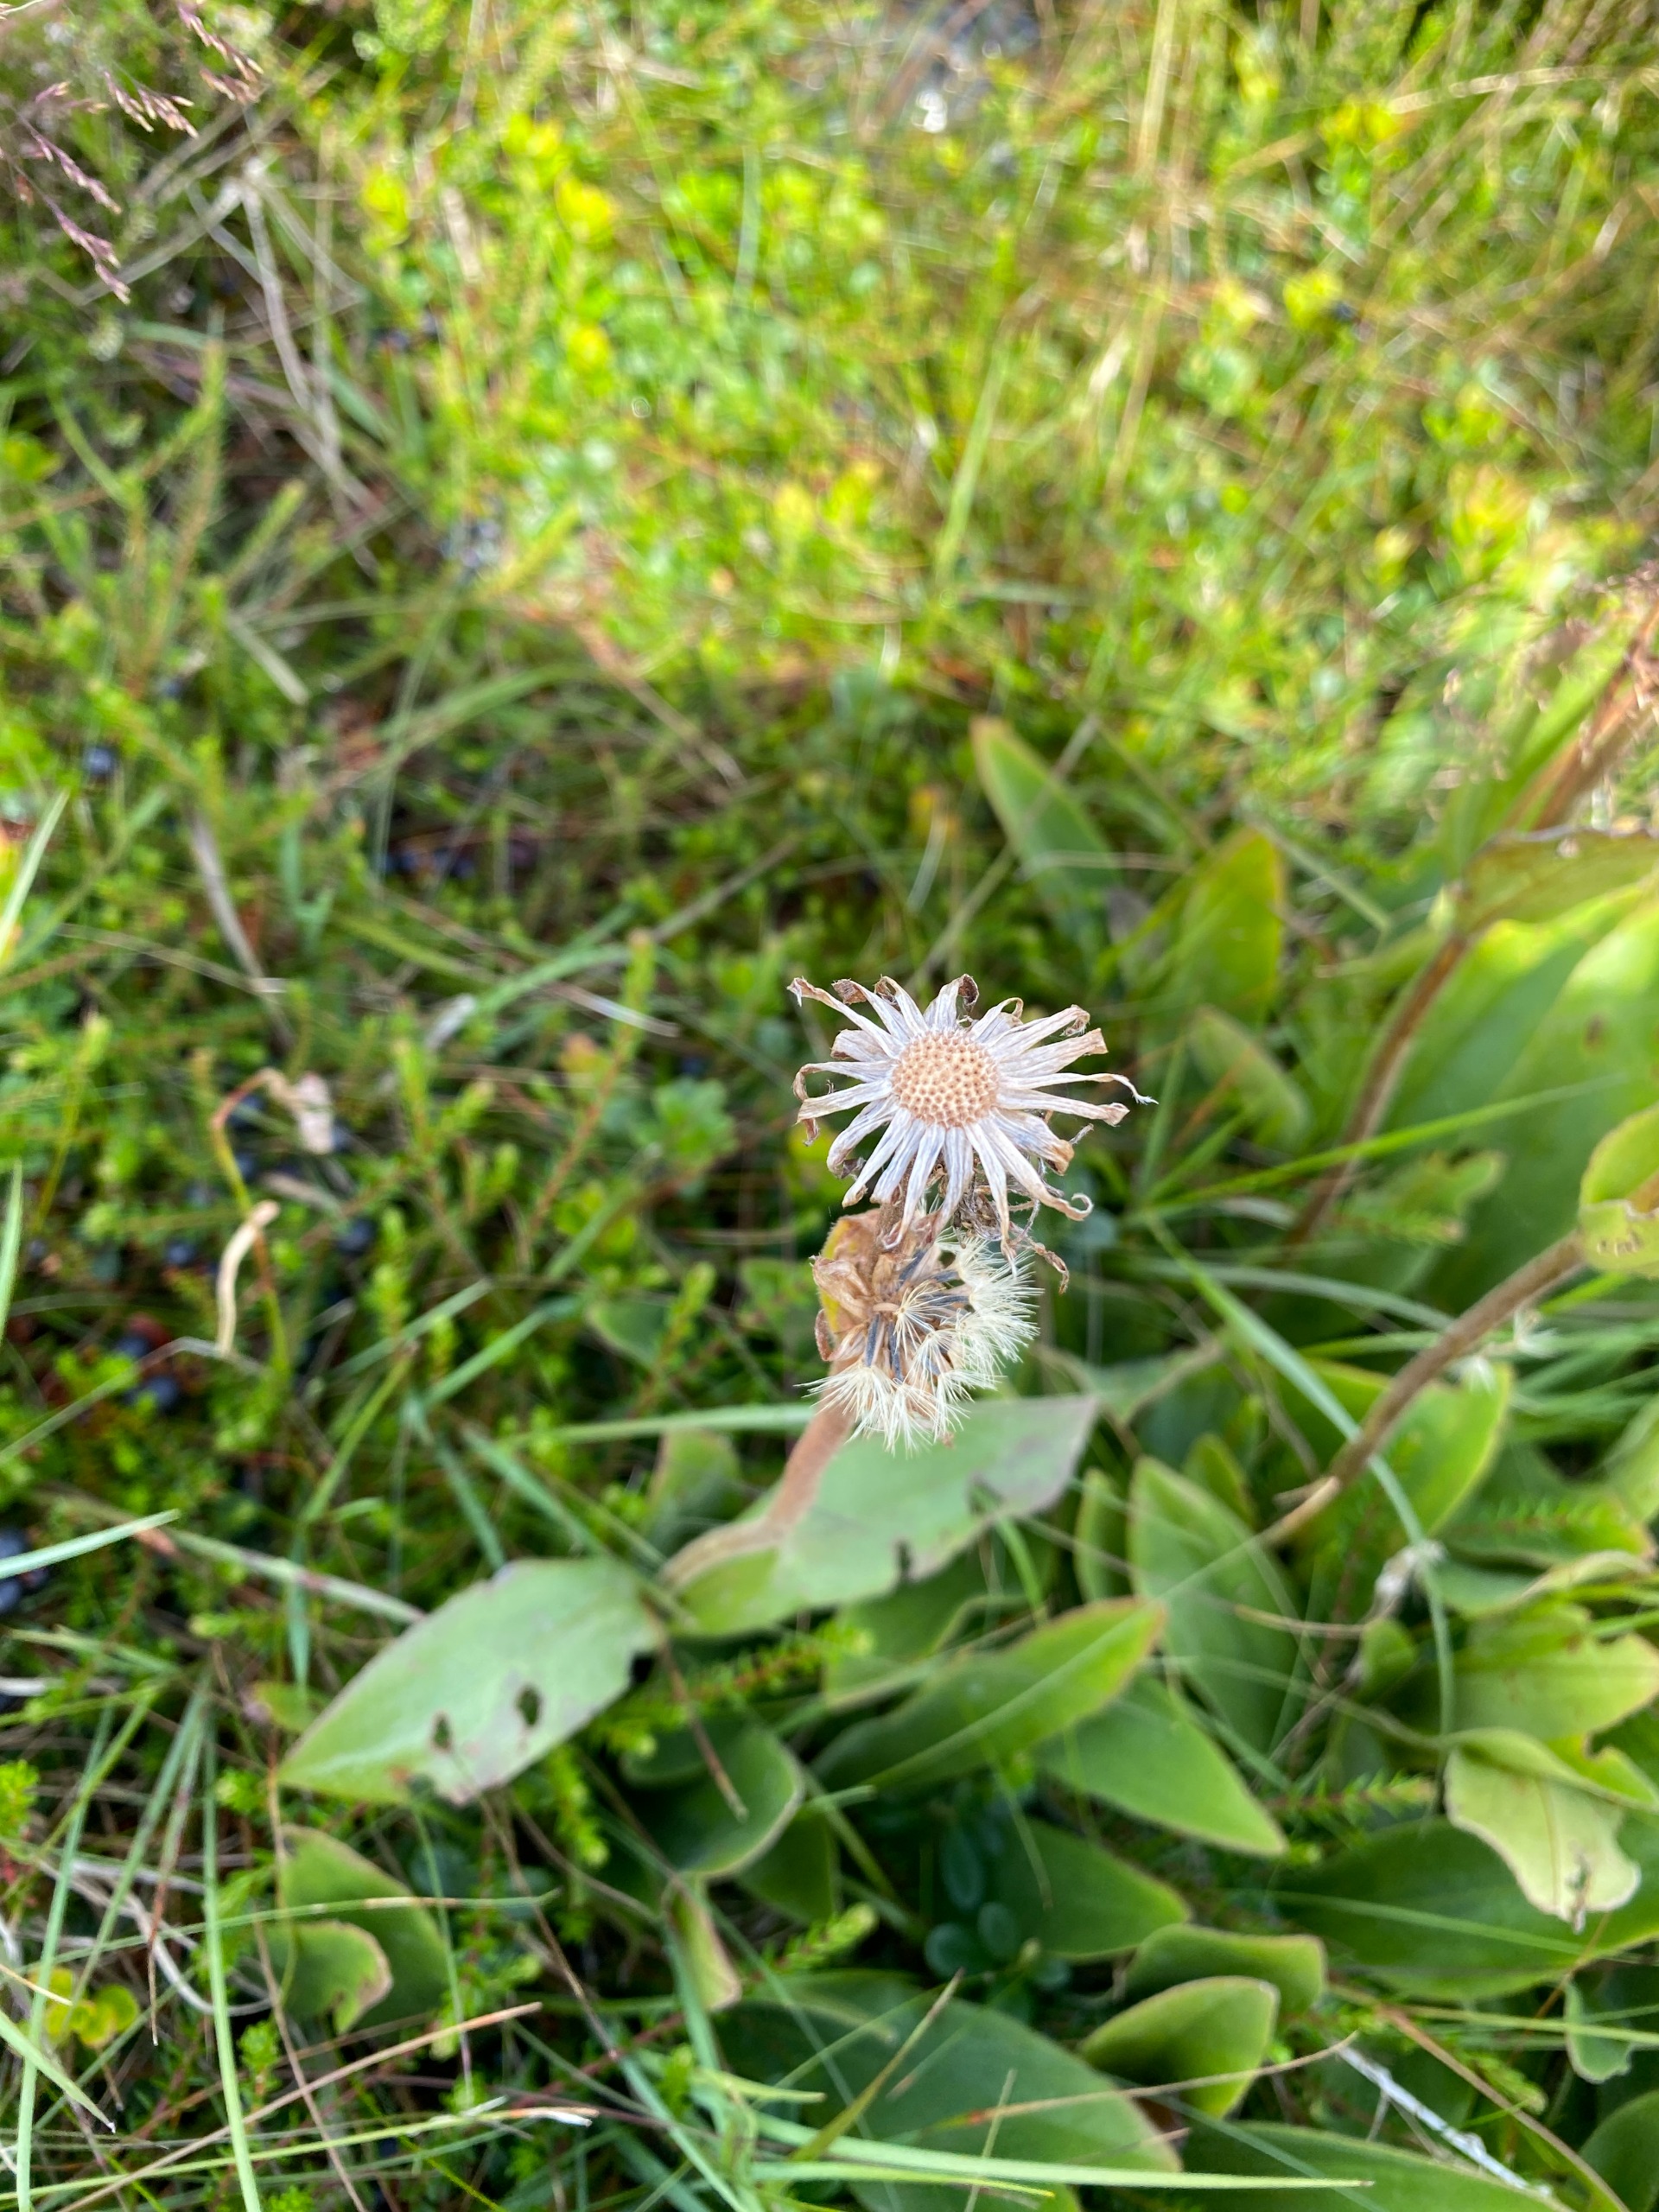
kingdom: Plantae
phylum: Tracheophyta
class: Magnoliopsida
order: Asterales
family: Asteraceae
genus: Arnica
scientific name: Arnica montana
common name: Guldblomme
